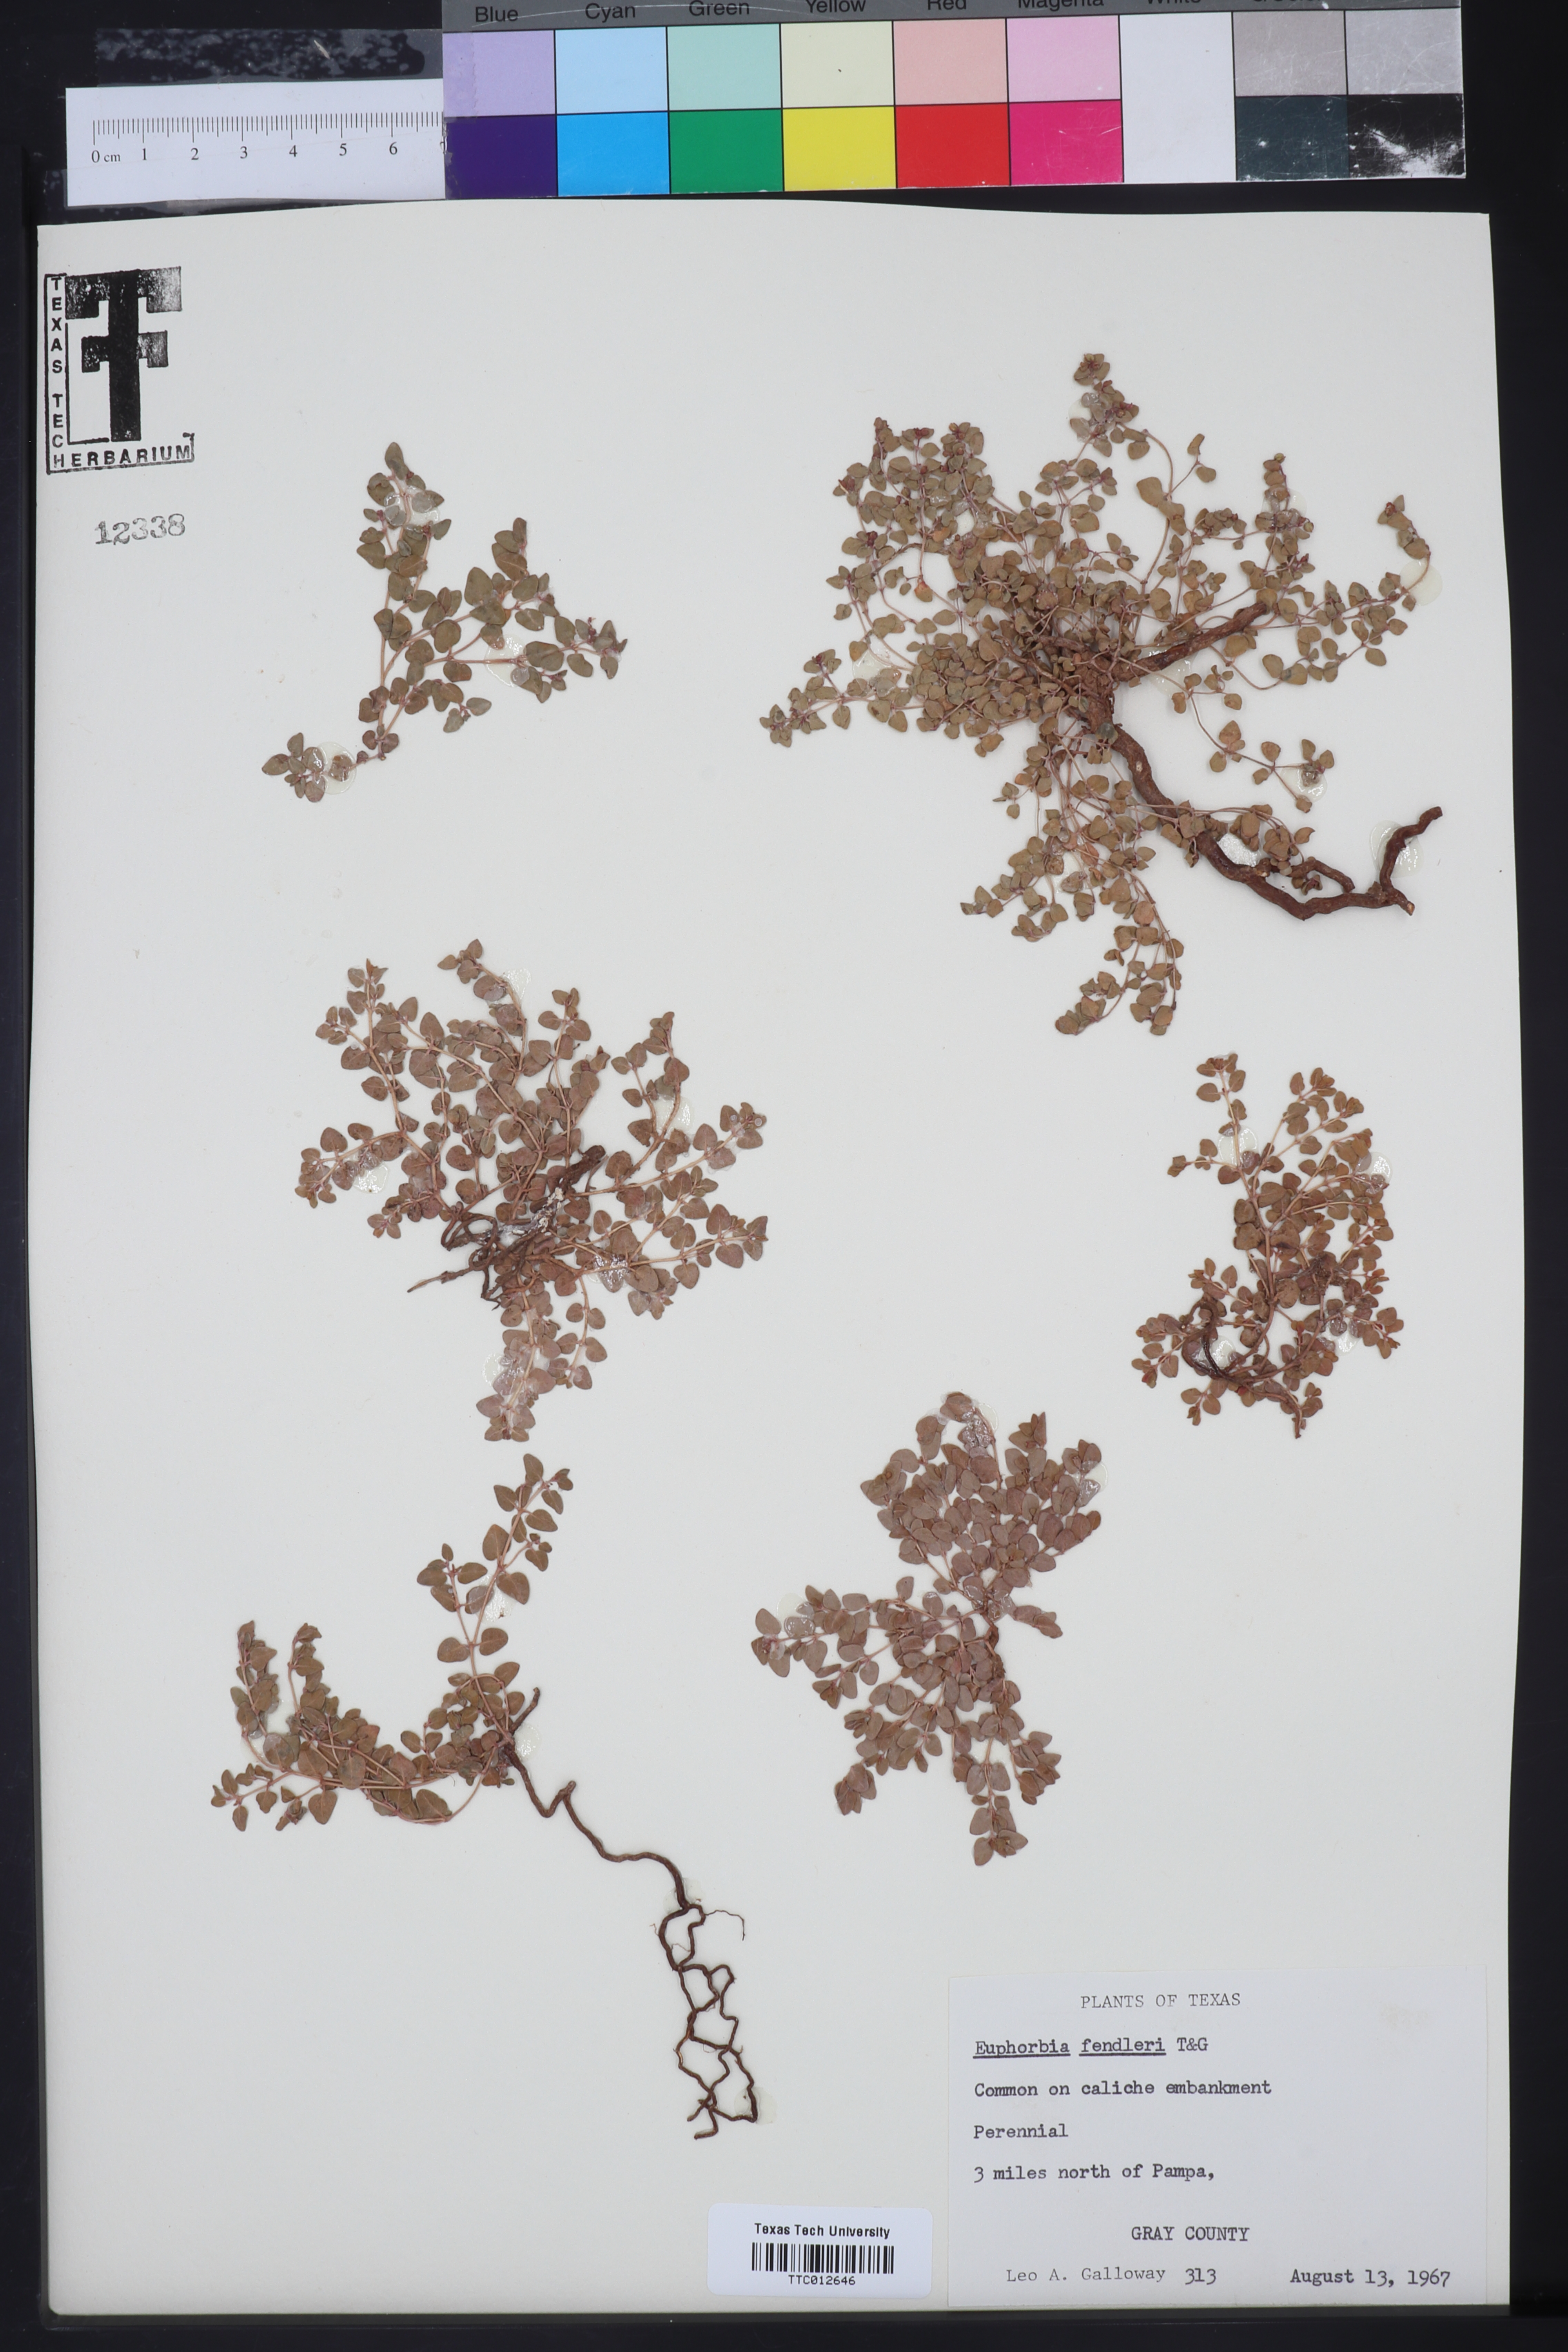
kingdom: Plantae
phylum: Tracheophyta
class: Magnoliopsida
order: Malpighiales
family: Euphorbiaceae
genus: Euphorbia
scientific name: Euphorbia fendleri
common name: Fendler's euphorbia
